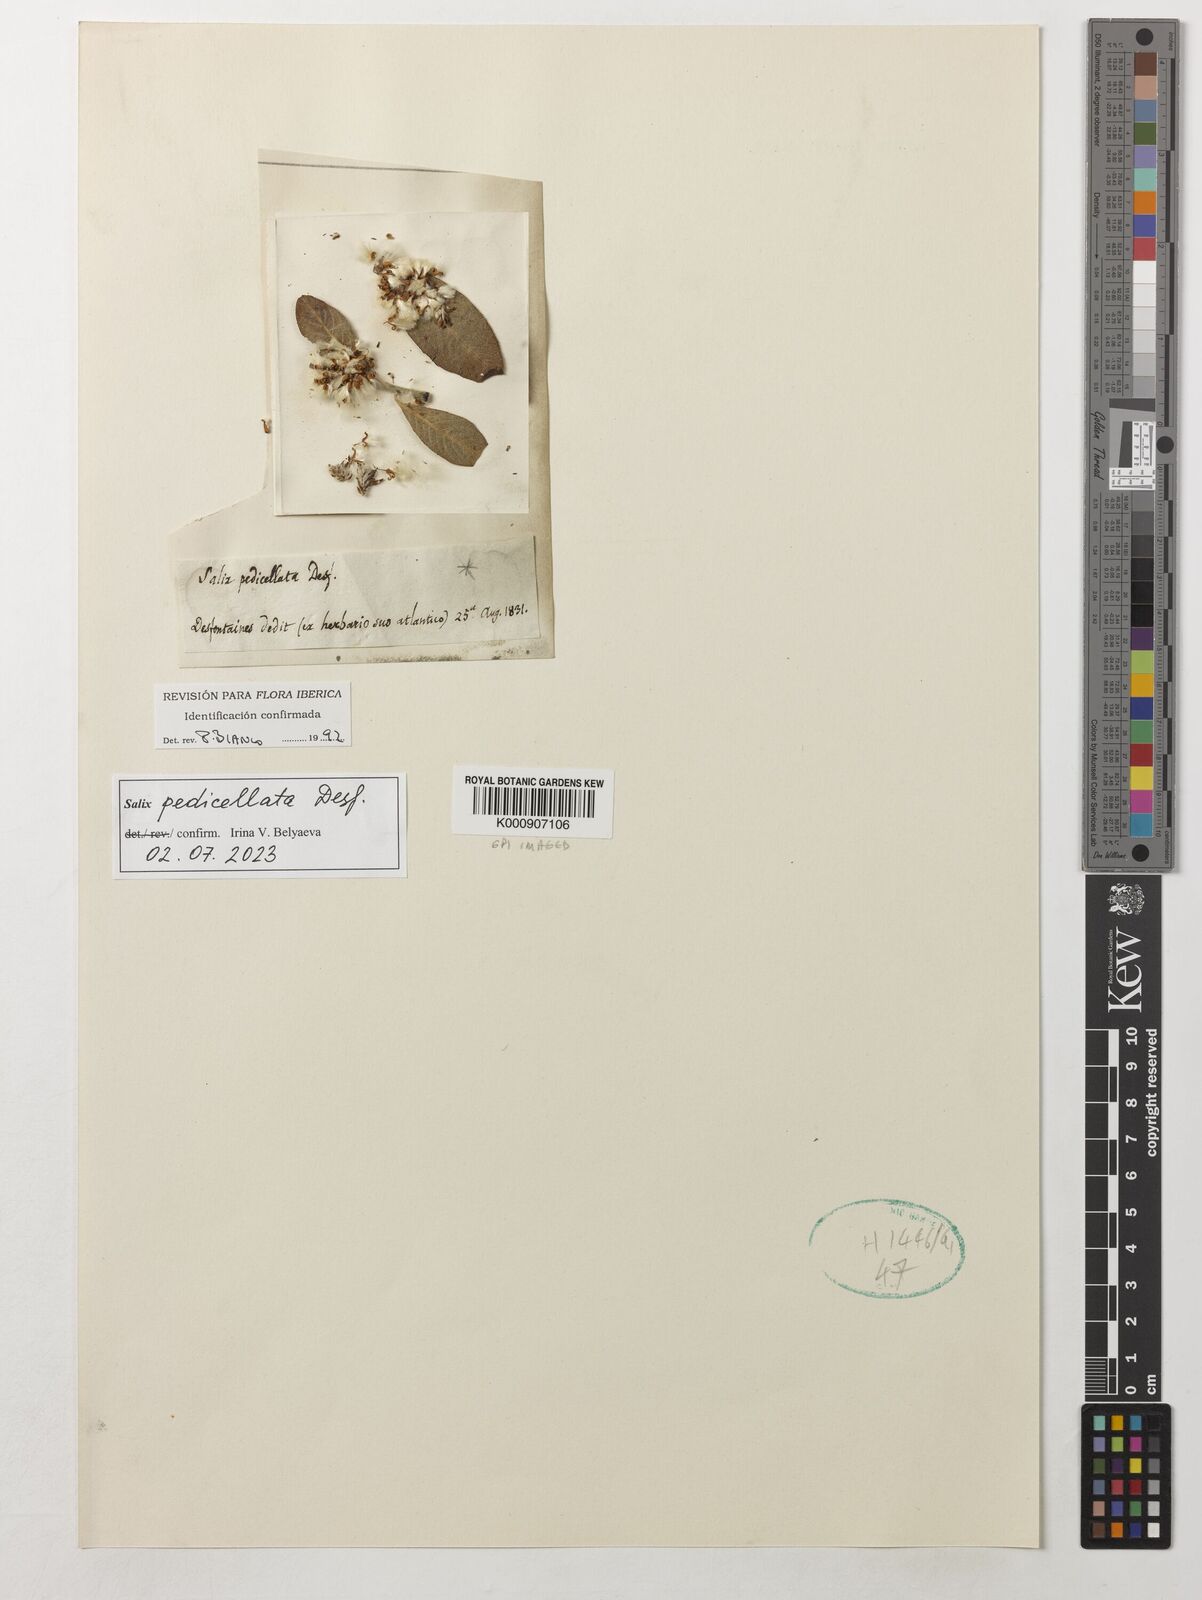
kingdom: Plantae
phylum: Tracheophyta
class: Magnoliopsida
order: Malpighiales
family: Salicaceae
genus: Salix
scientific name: Salix pedicellata
